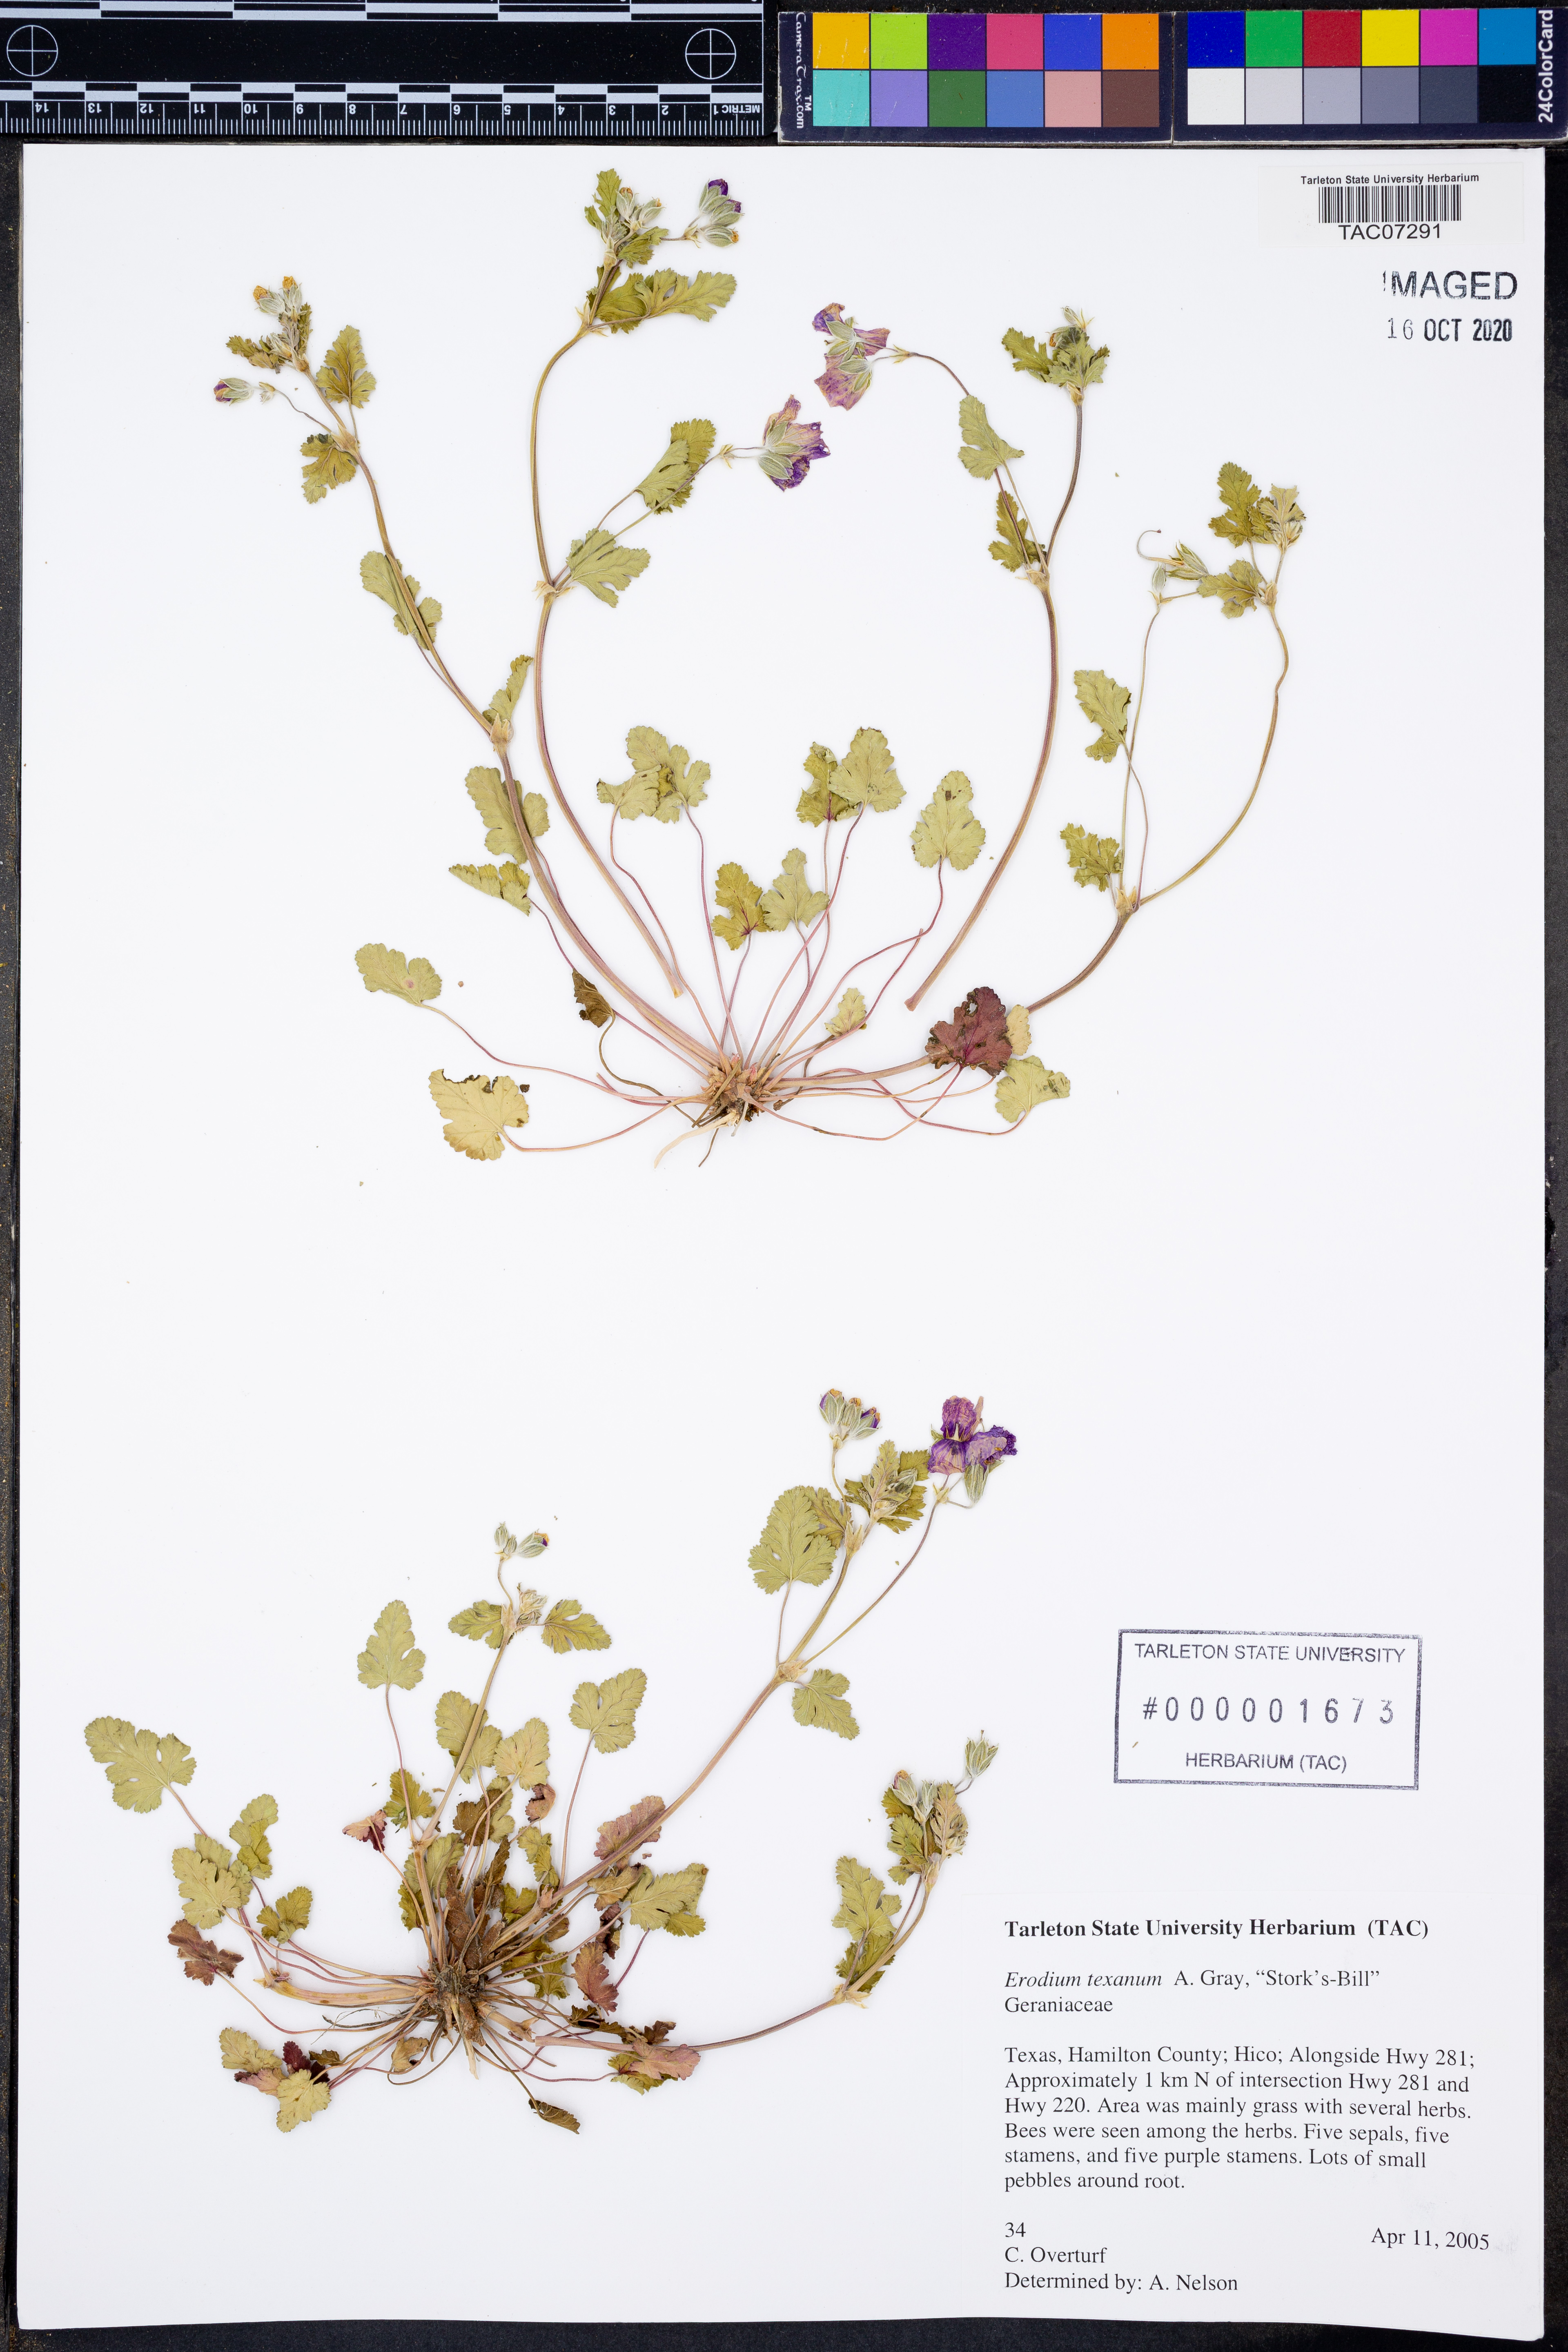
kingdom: Plantae
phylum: Tracheophyta
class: Magnoliopsida
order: Geraniales
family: Geraniaceae
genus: Erodium
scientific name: Erodium texanum
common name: Texas stork's-bill
